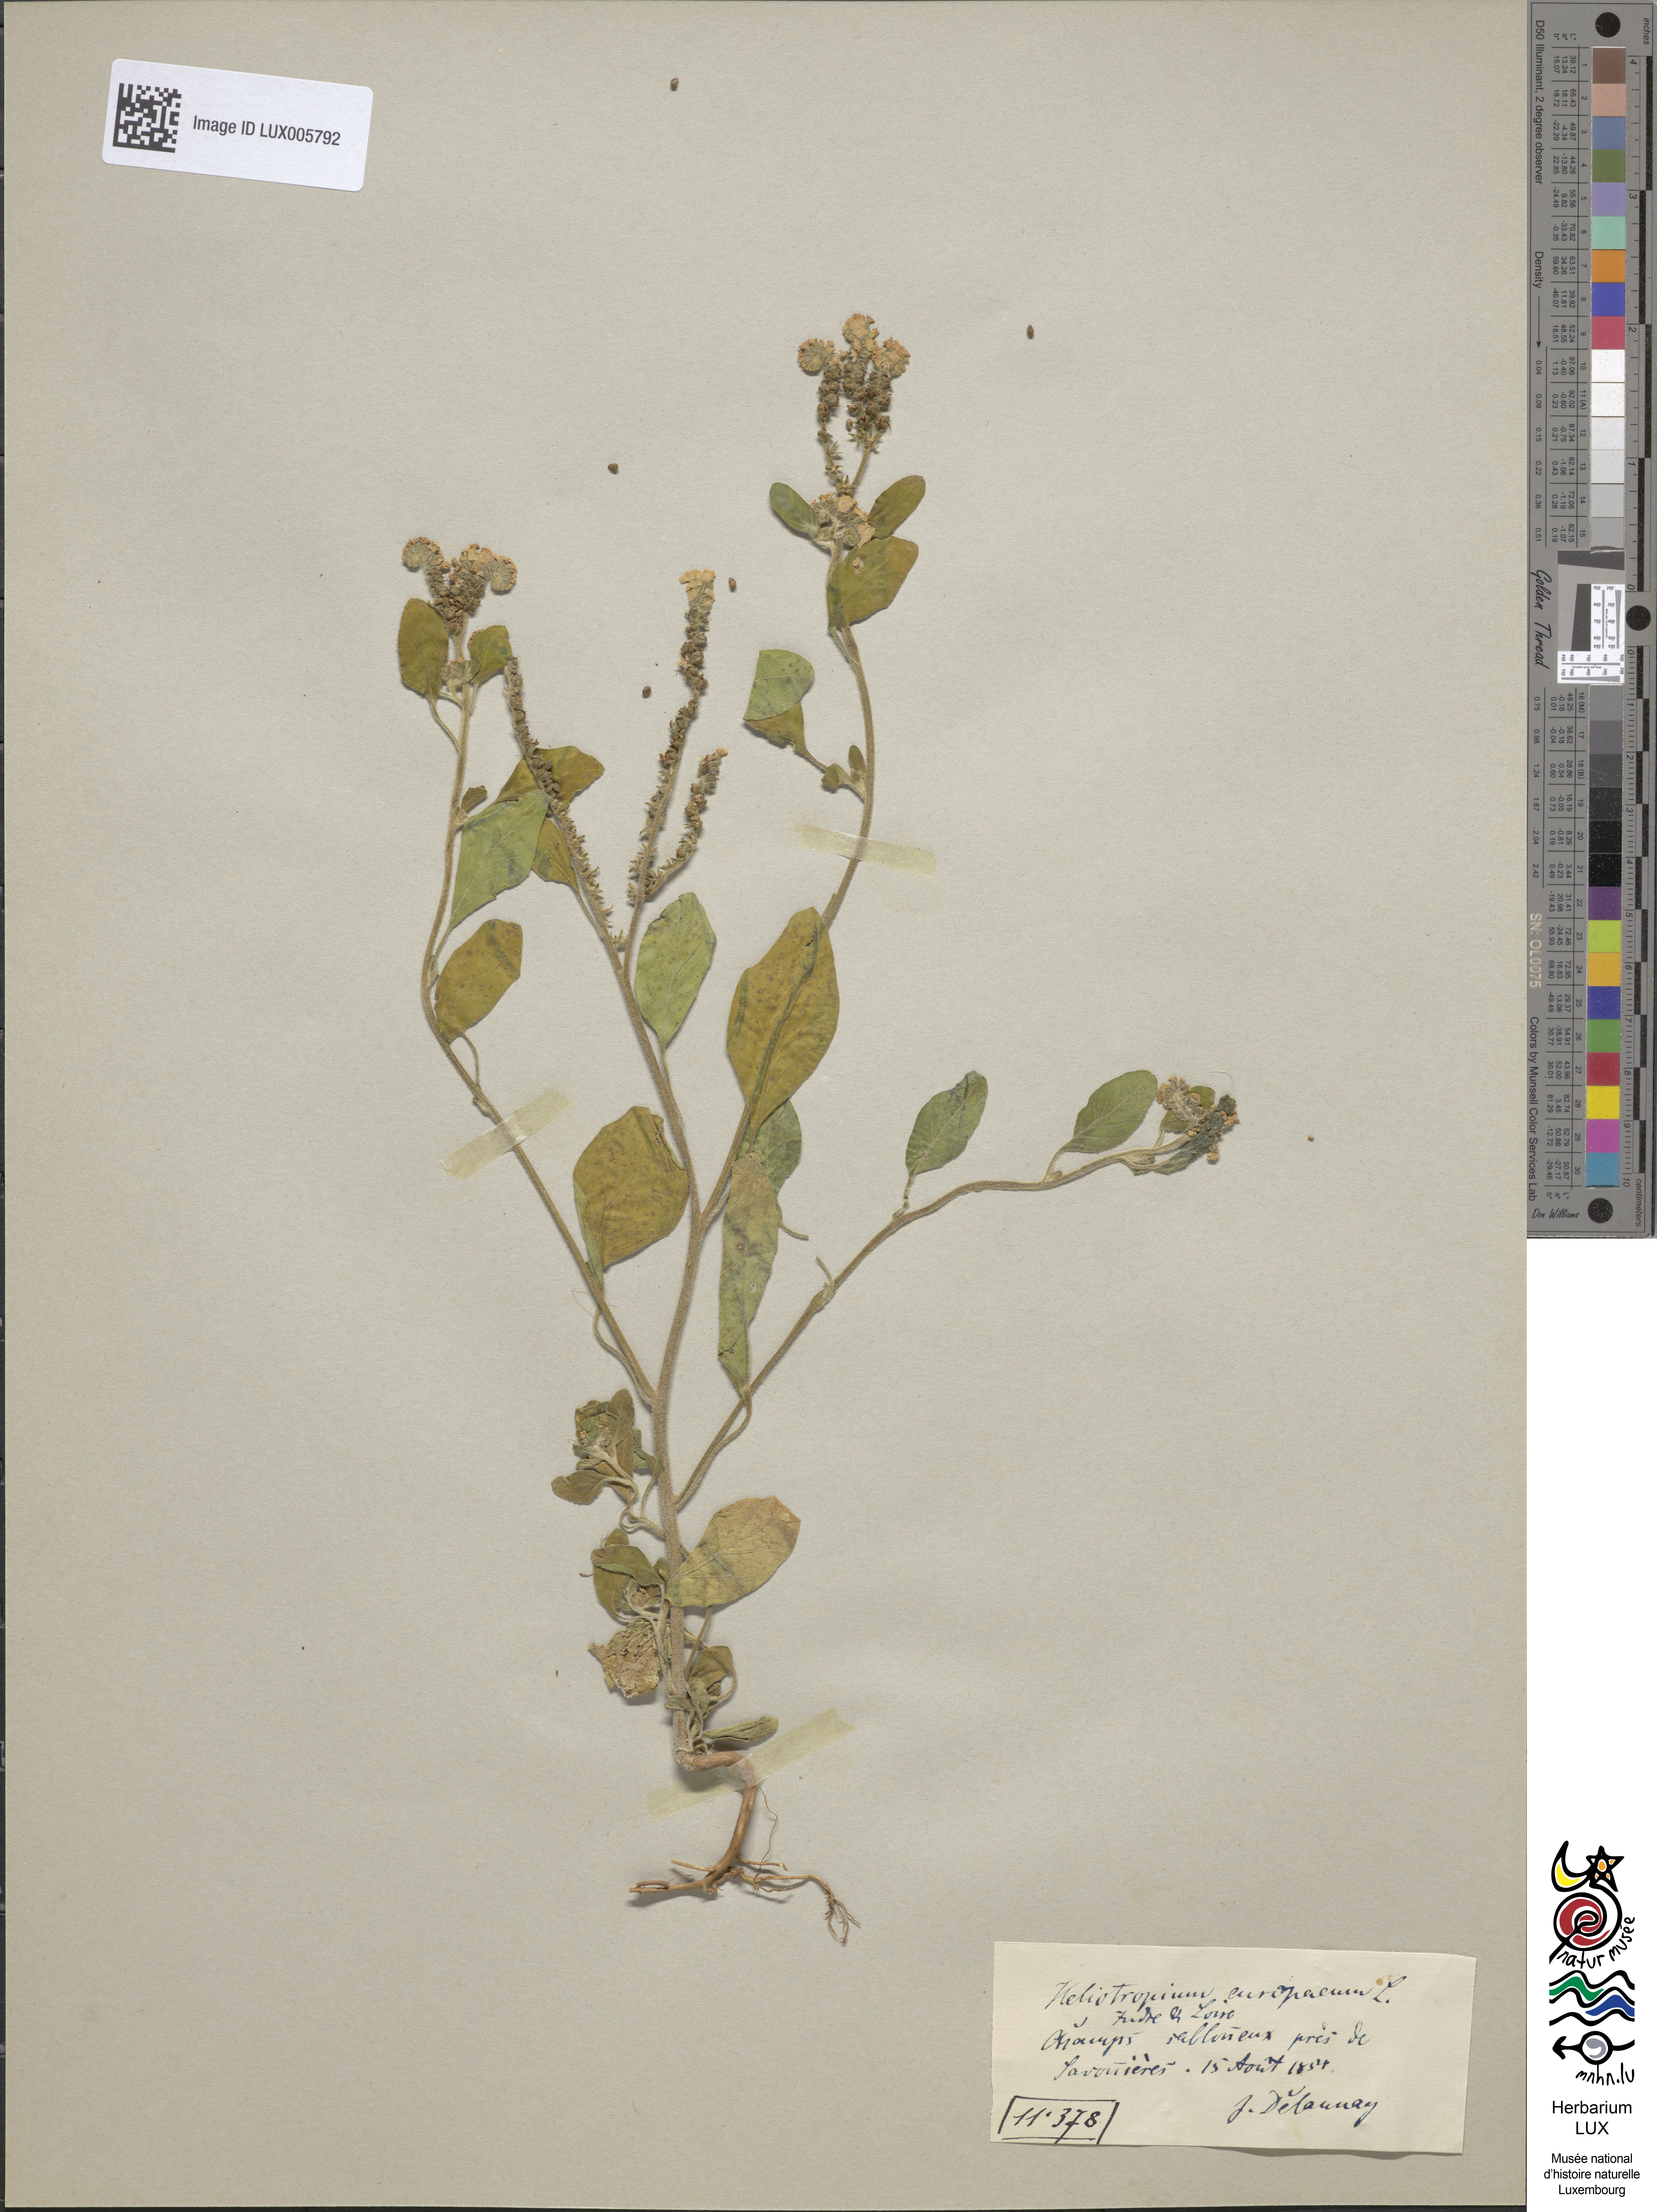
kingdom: Plantae
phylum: Tracheophyta
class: Magnoliopsida
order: Boraginales
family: Heliotropiaceae
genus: Heliotropium
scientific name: Heliotropium europaeum
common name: European heliotrope
